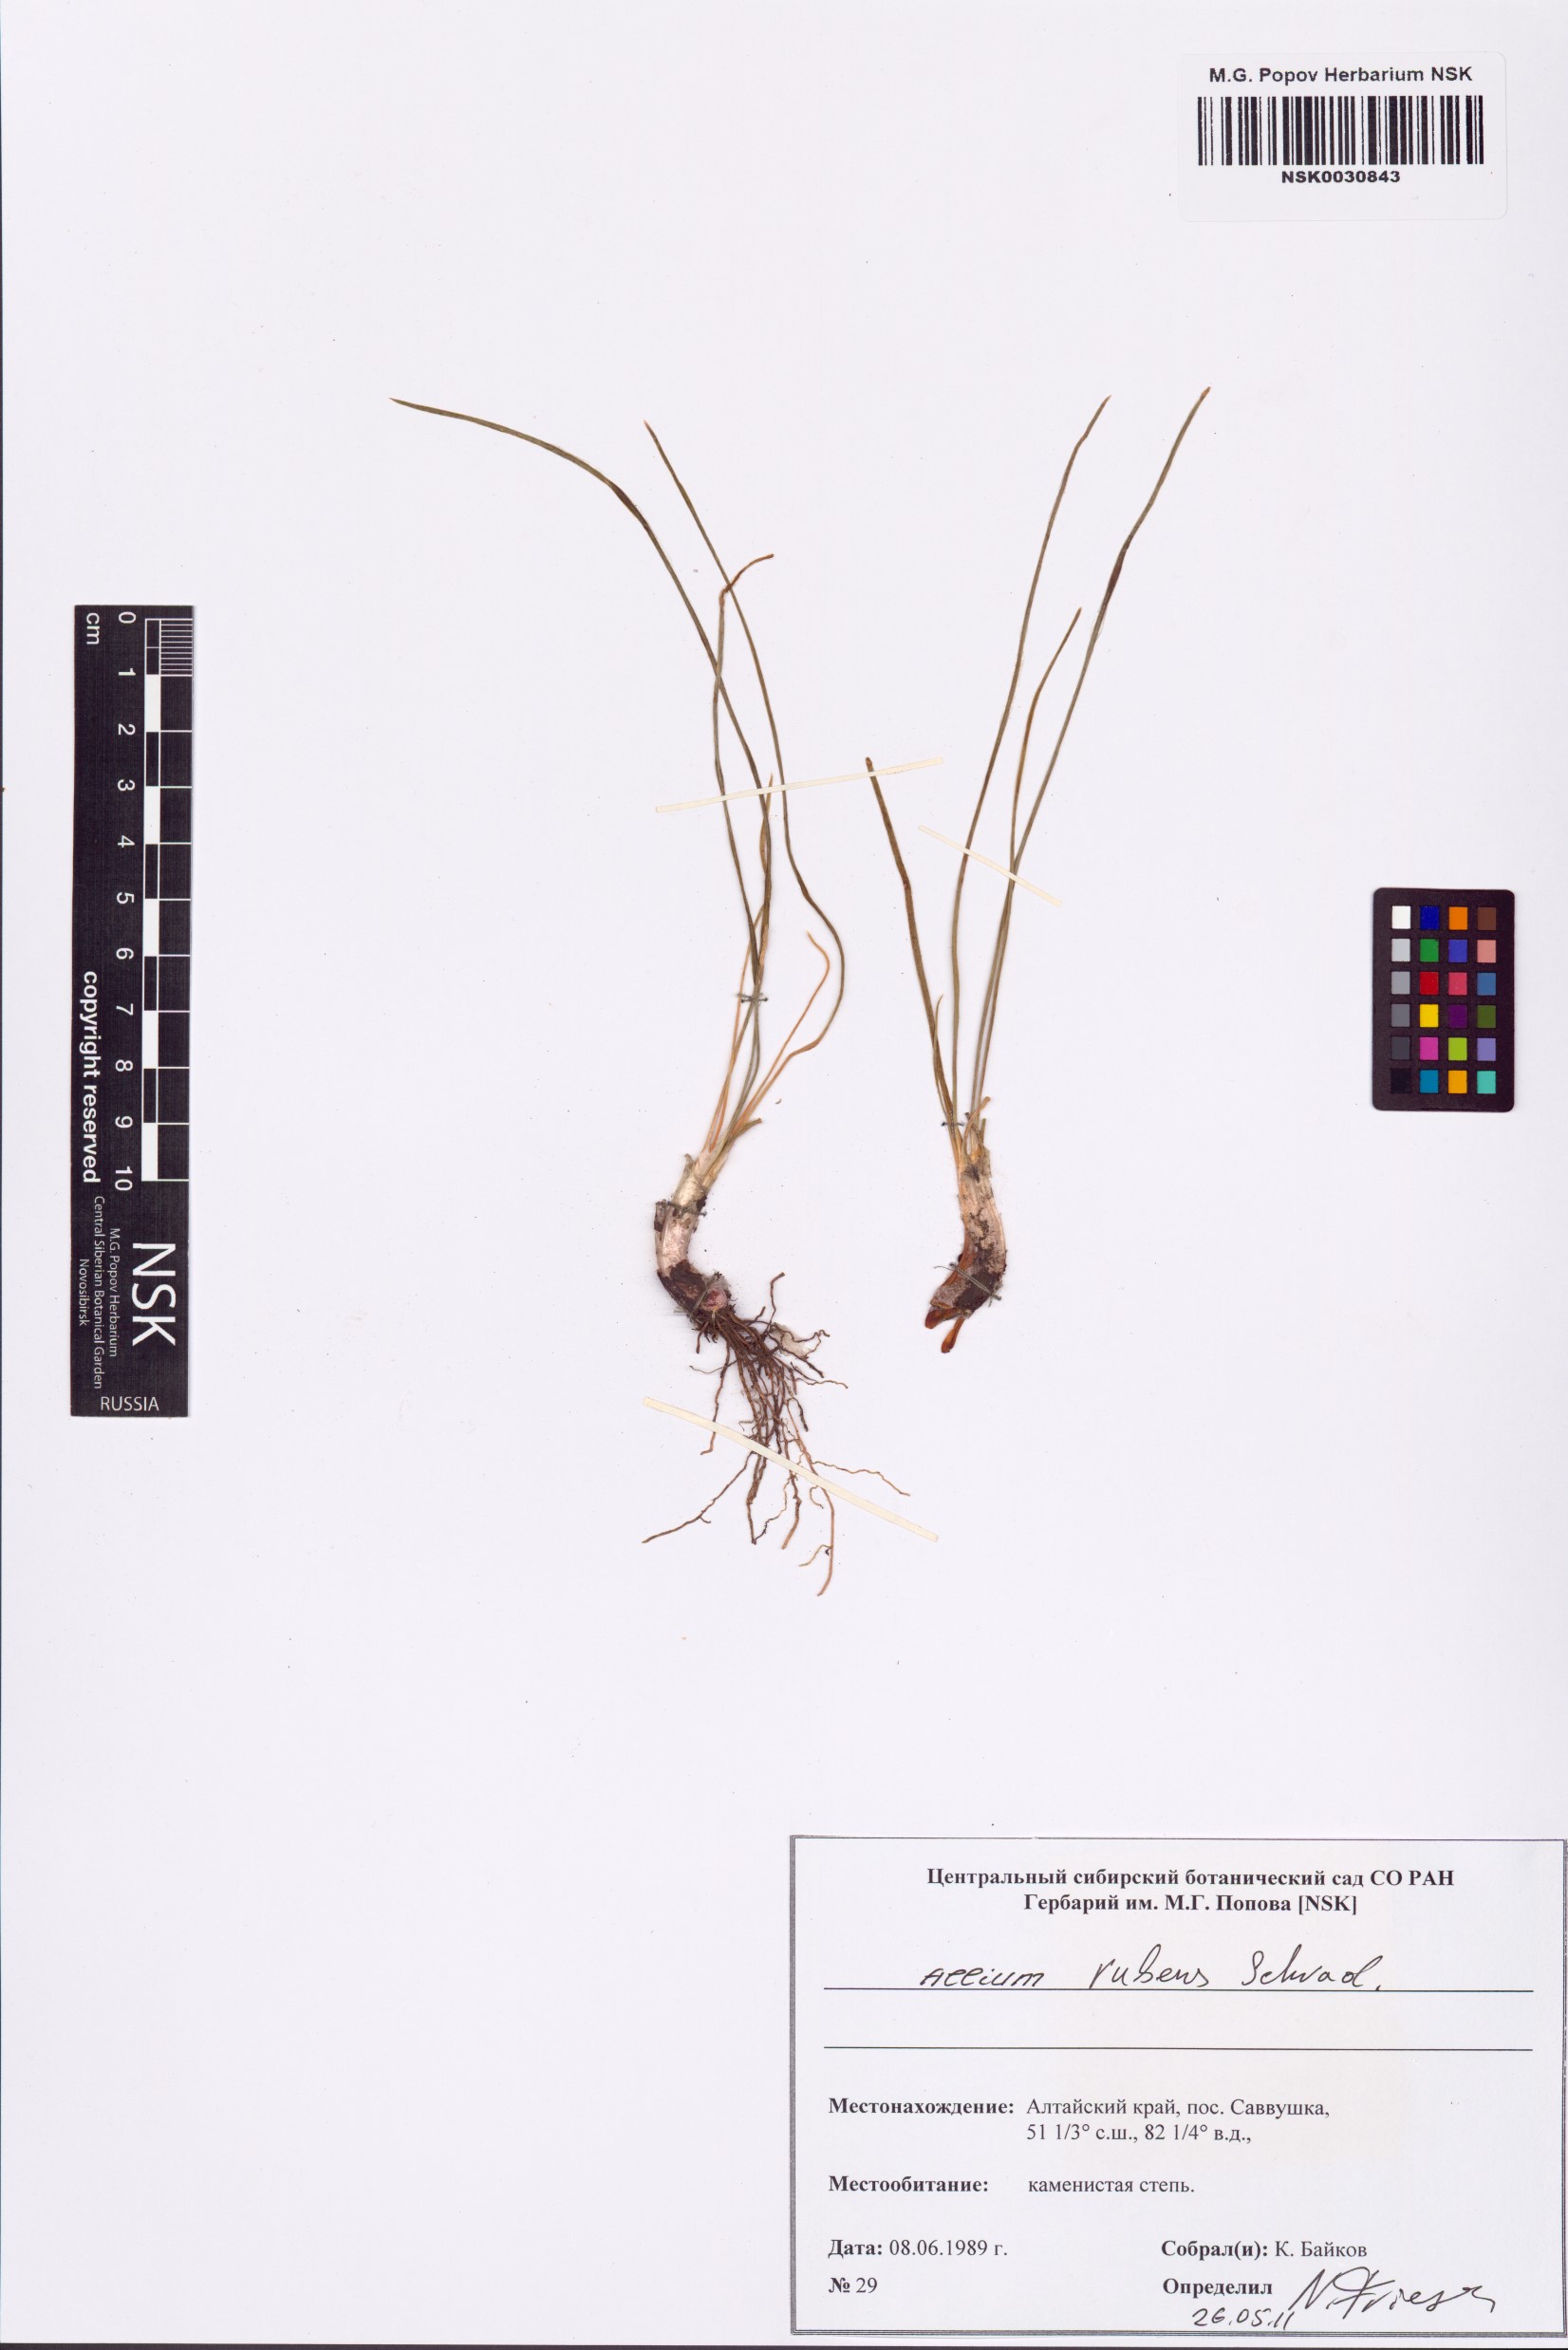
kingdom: Plantae
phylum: Tracheophyta
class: Liliopsida
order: Asparagales
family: Amaryllidaceae
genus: Allium
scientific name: Allium rubens
